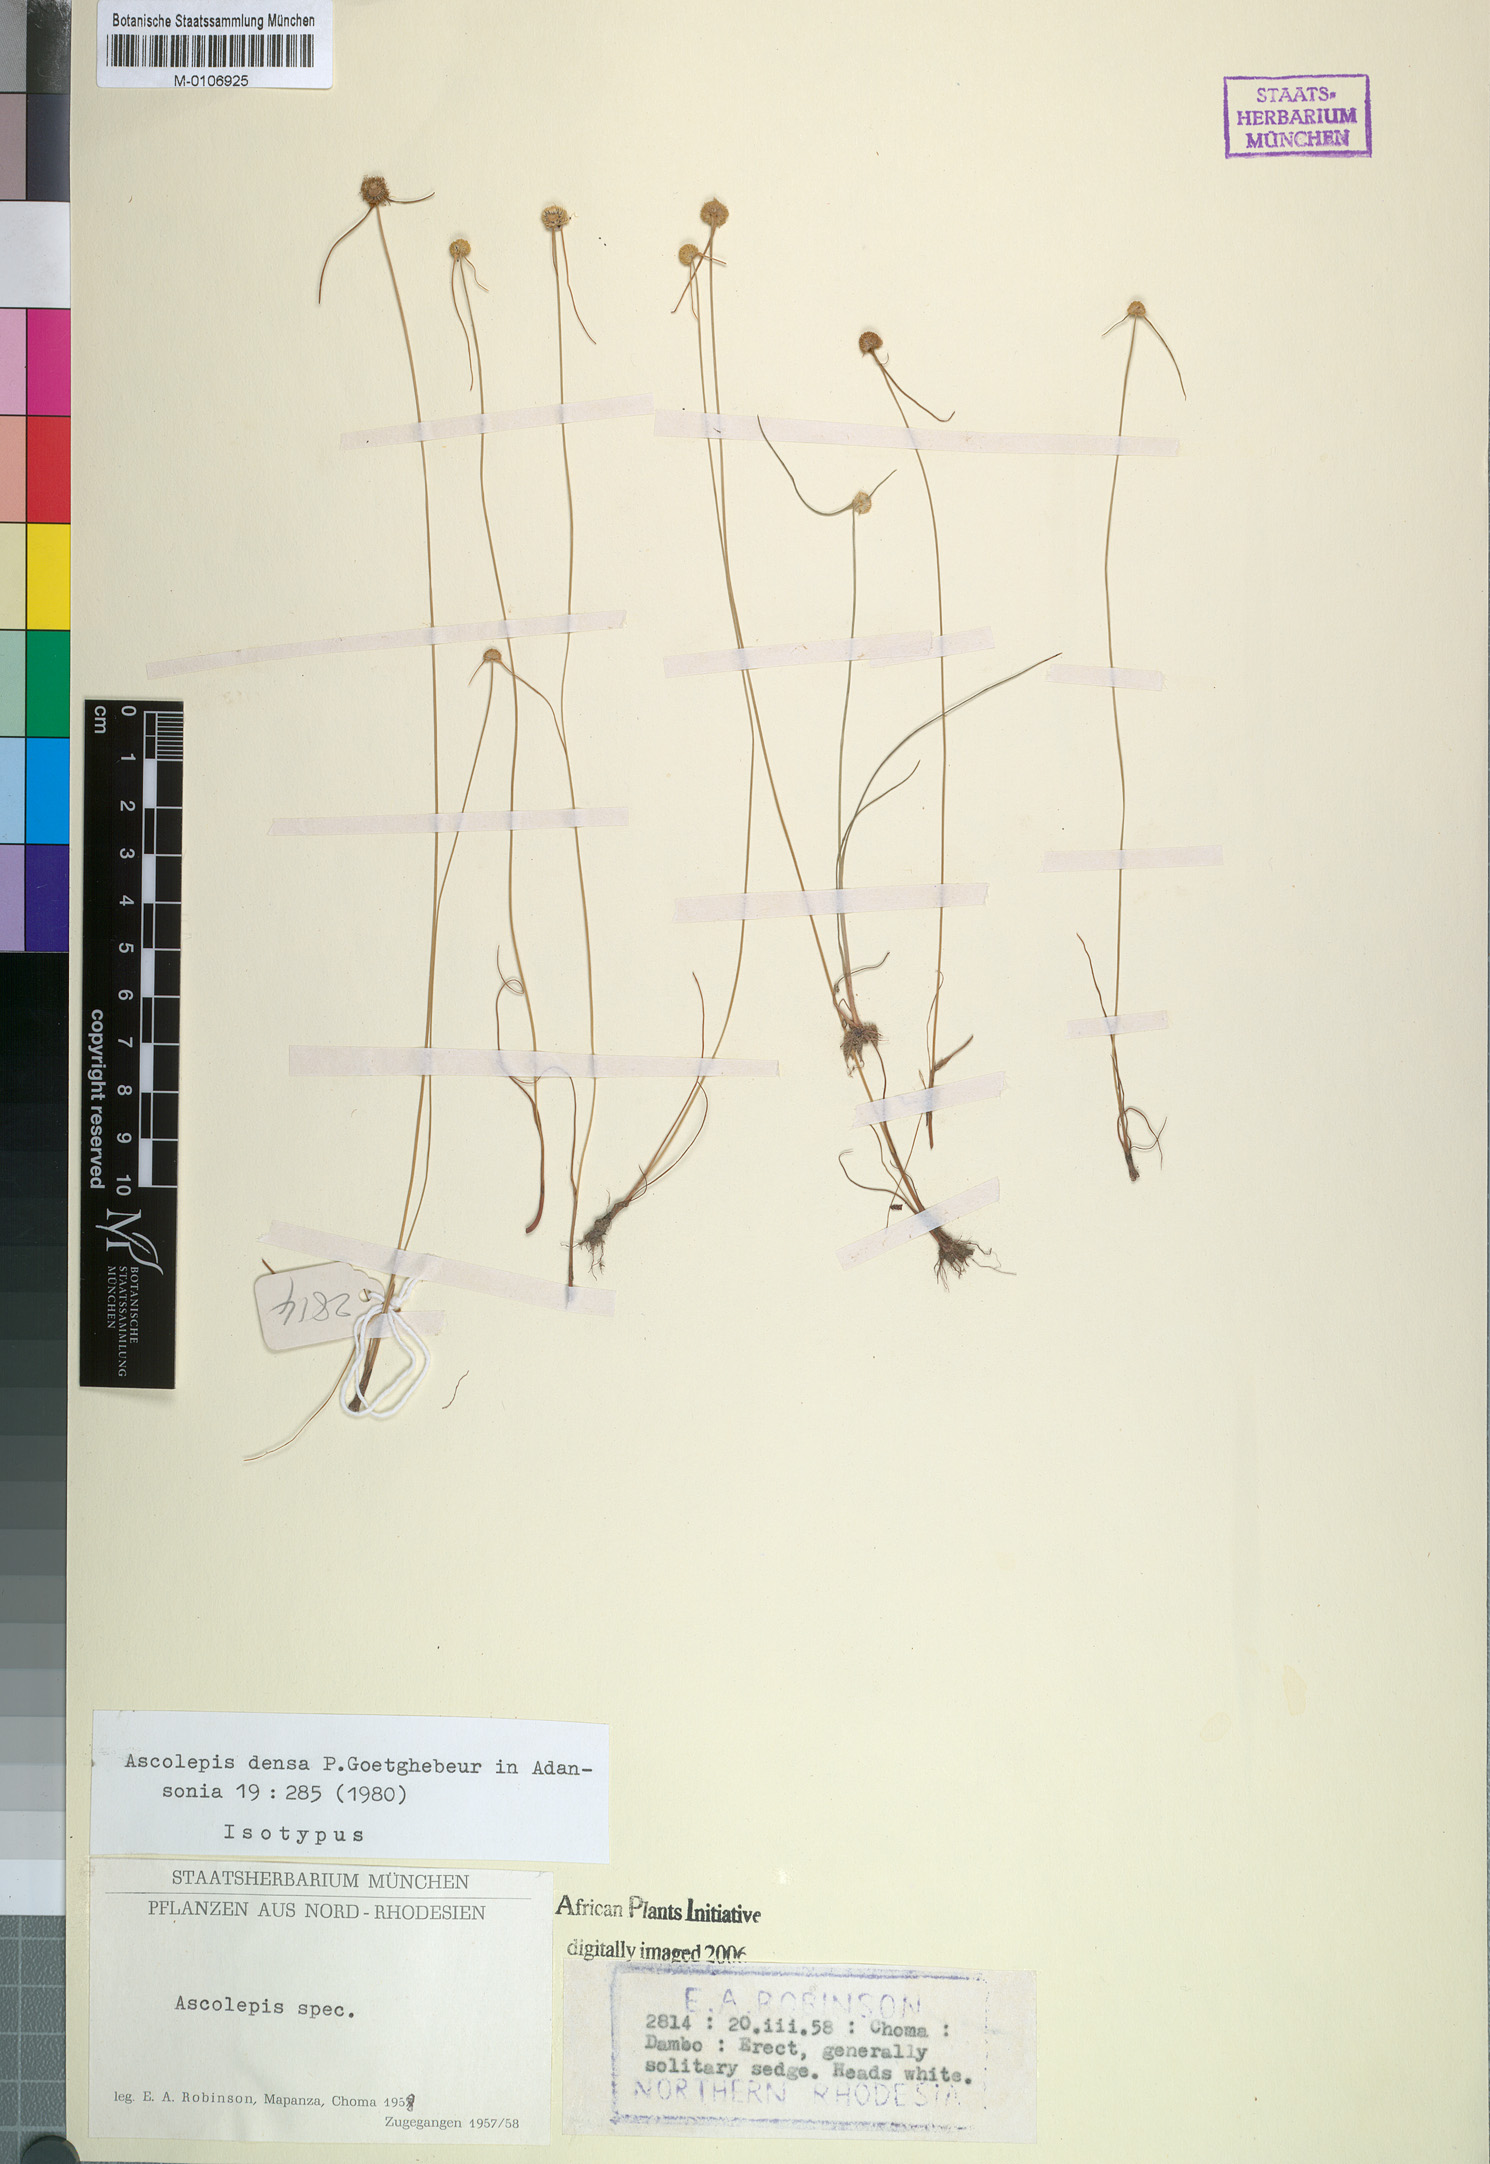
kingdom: Plantae
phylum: Tracheophyta
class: Liliopsida
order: Poales
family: Cyperaceae
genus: Cyperus
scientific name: Cyperus ascodensus
